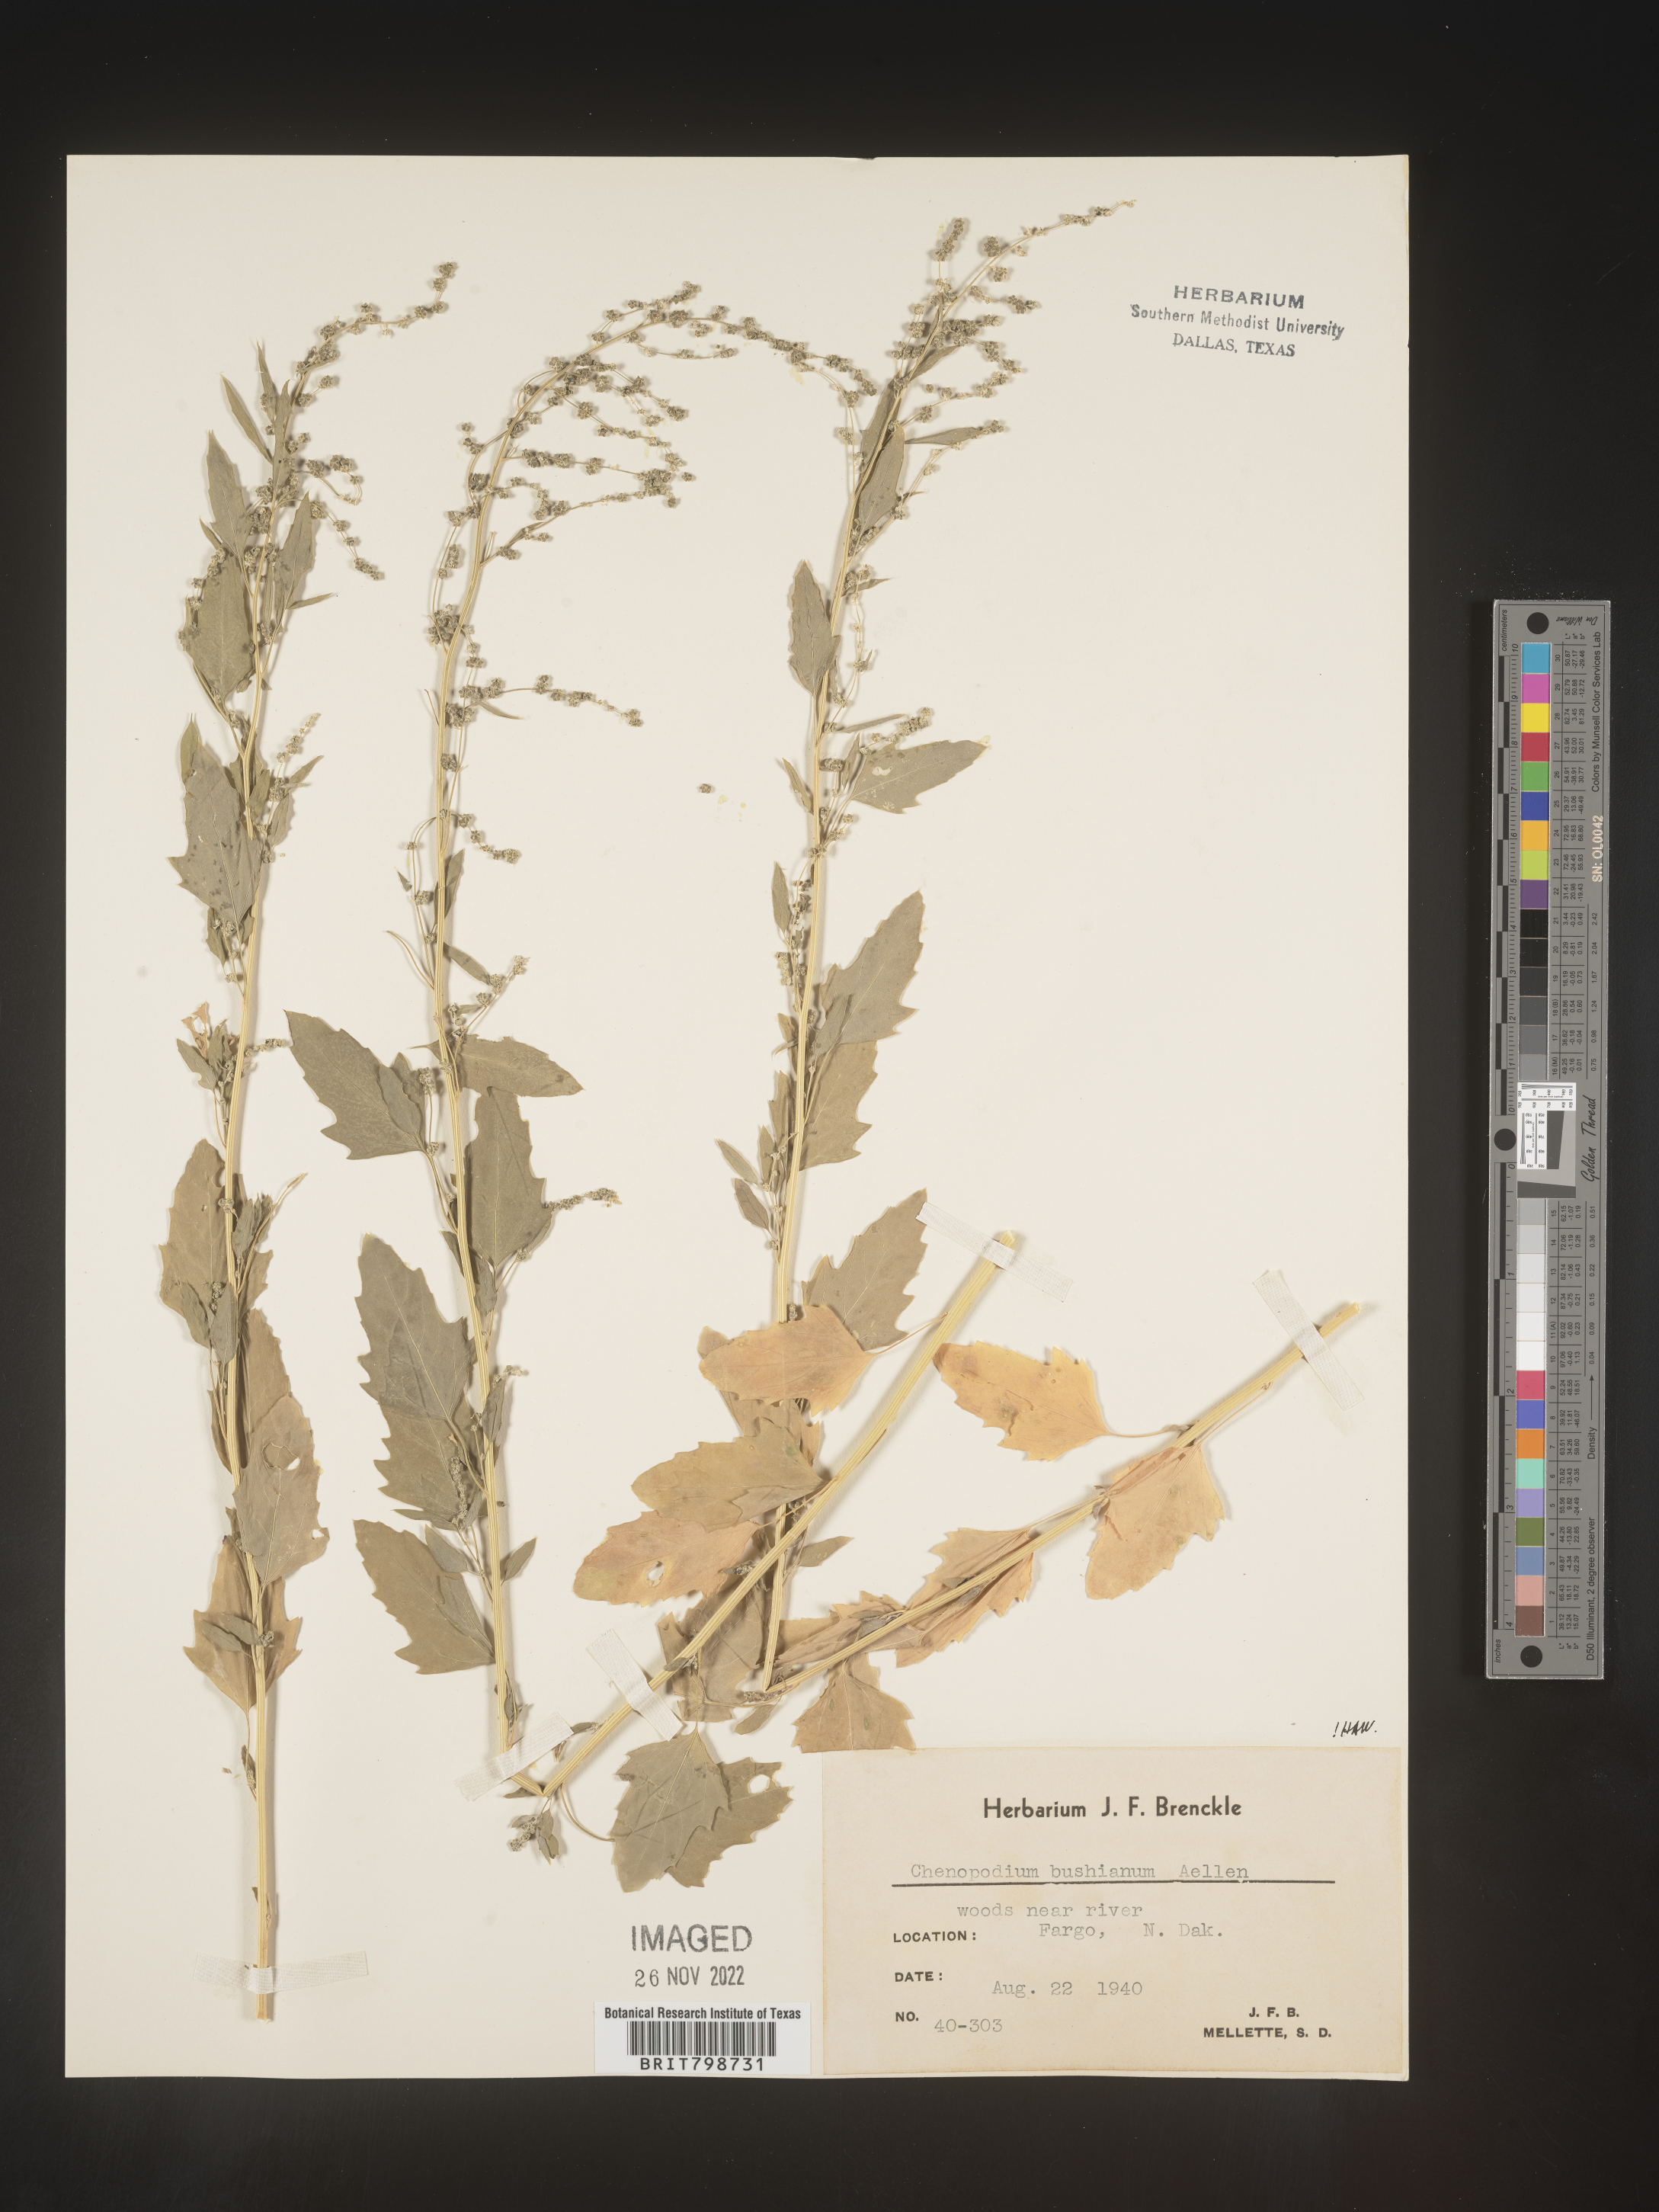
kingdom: Plantae
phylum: Tracheophyta
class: Magnoliopsida
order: Caryophyllales
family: Amaranthaceae
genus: Chenopodium
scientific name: Chenopodium berlandieri
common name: Pit-seed goosefoot
